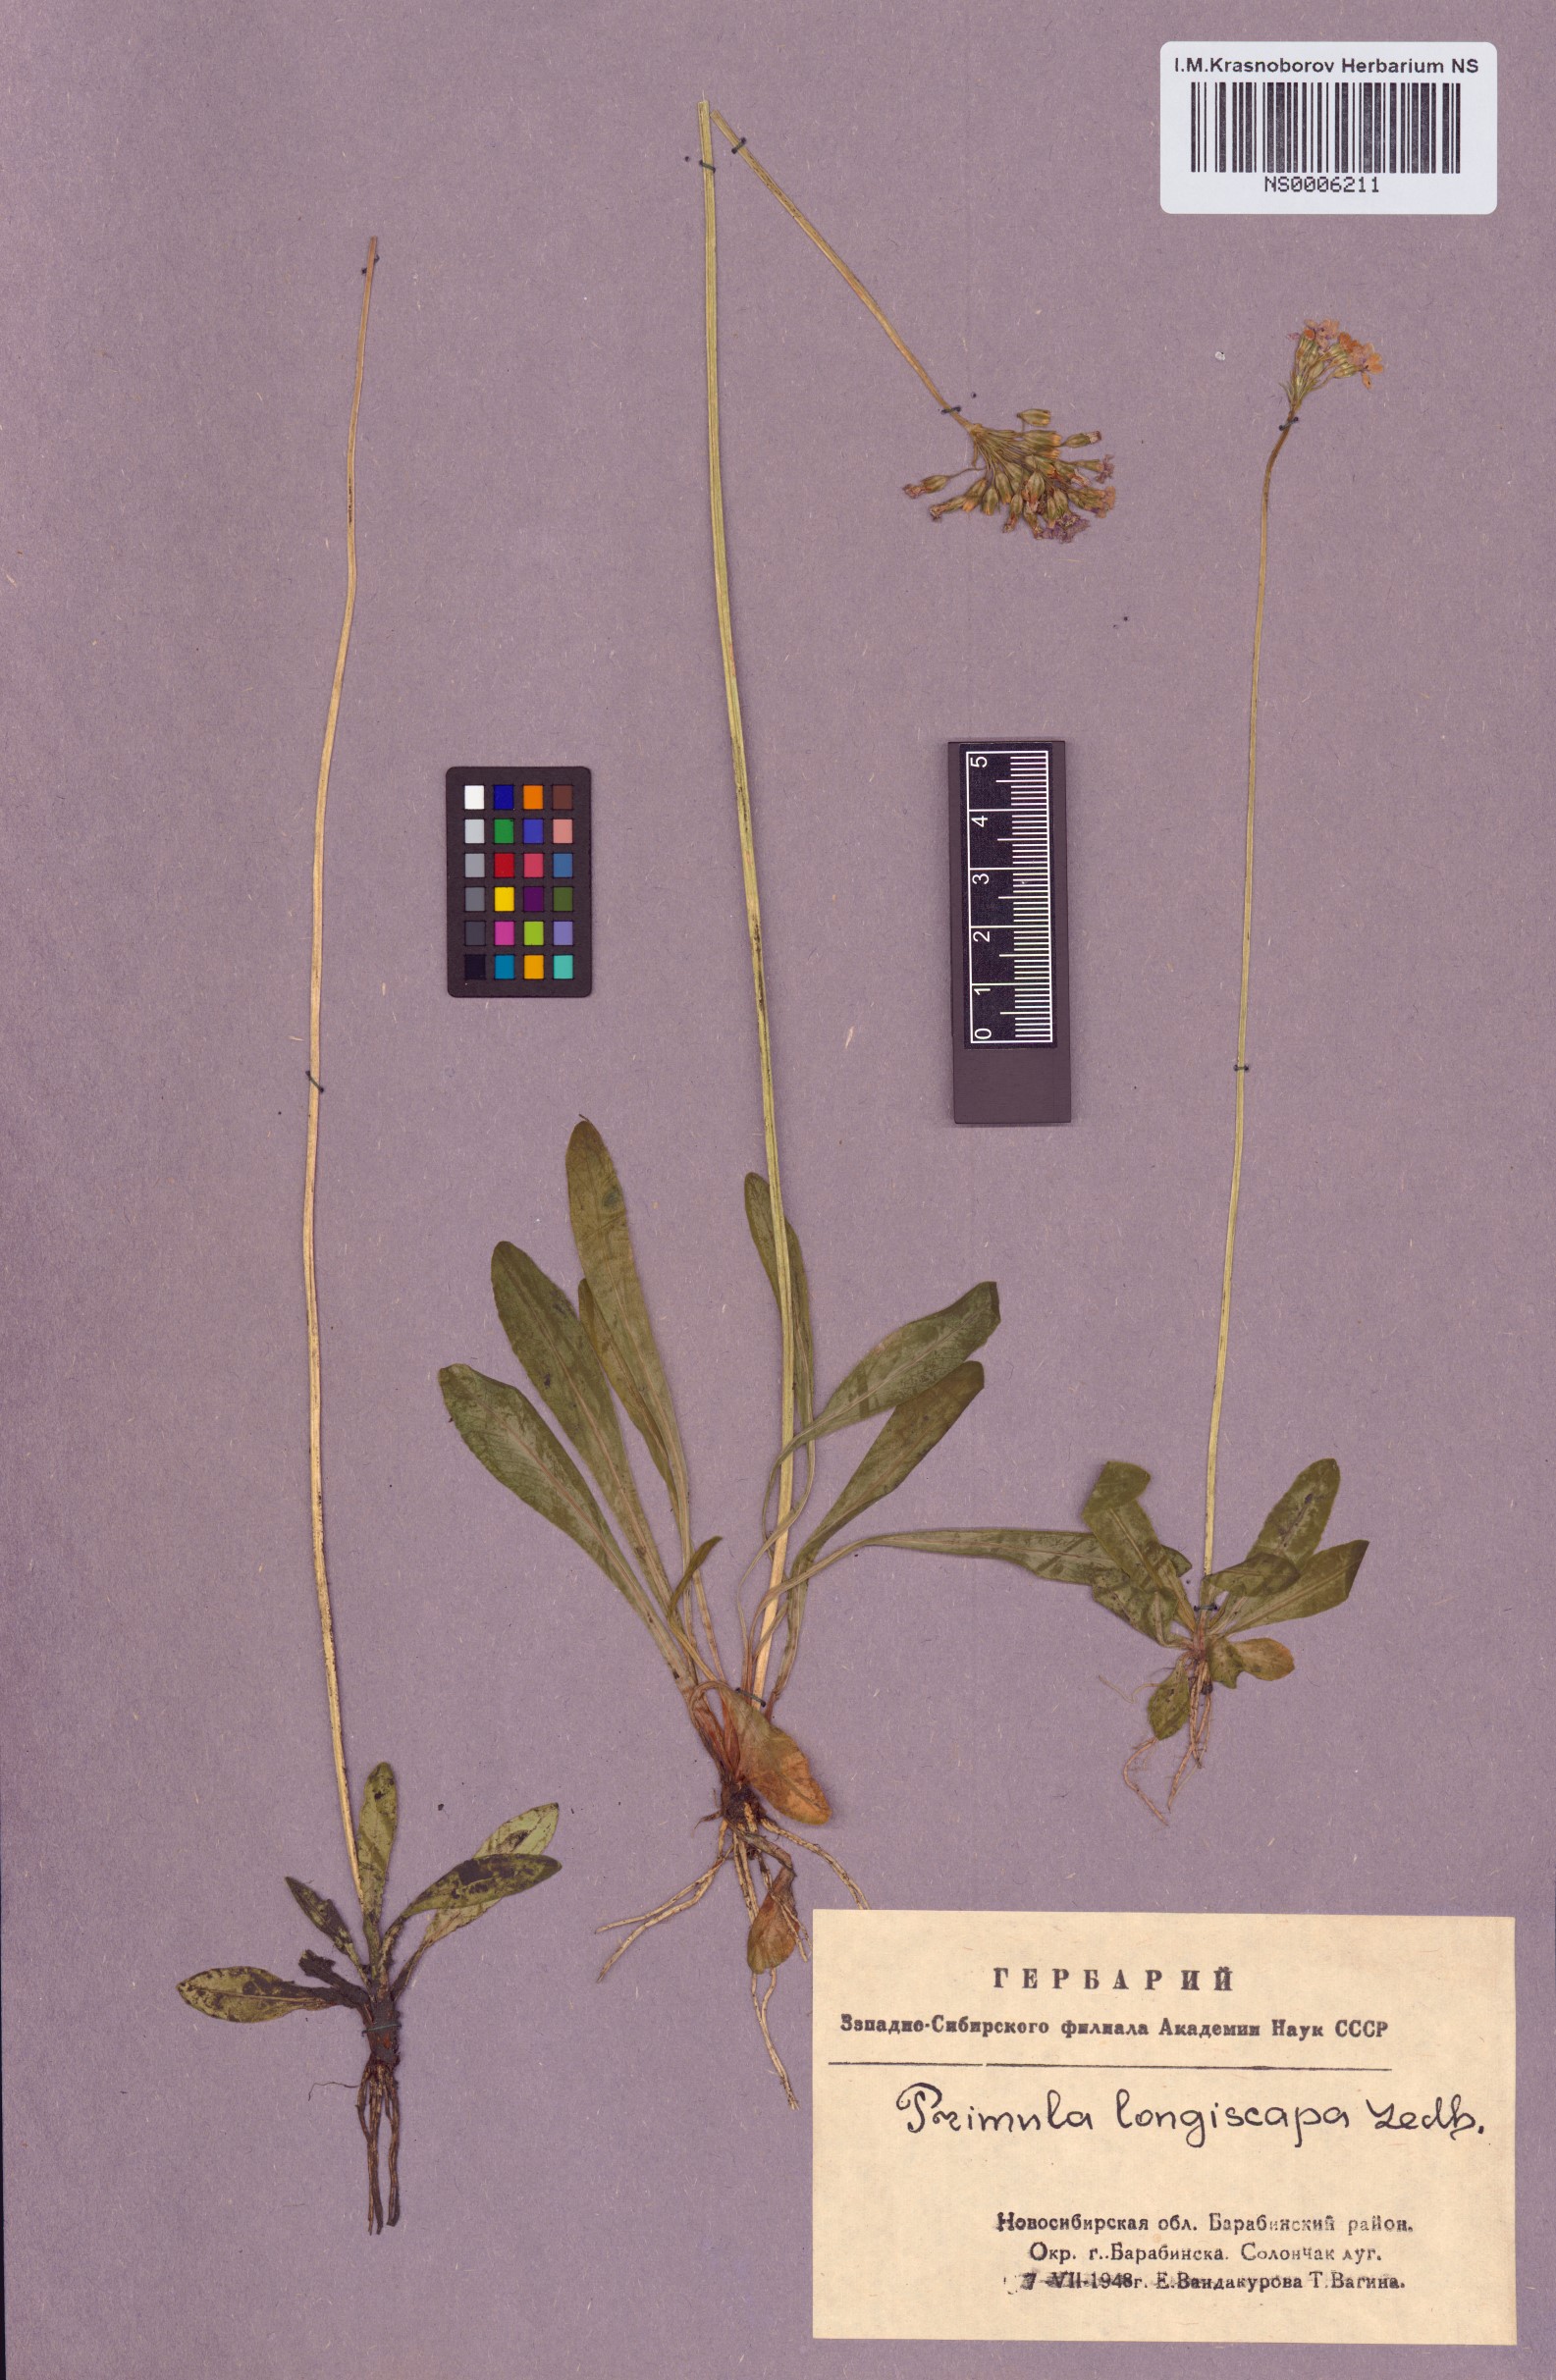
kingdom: Plantae
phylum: Tracheophyta
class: Magnoliopsida
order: Ericales
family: Primulaceae
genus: Primula
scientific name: Primula longiscapa
